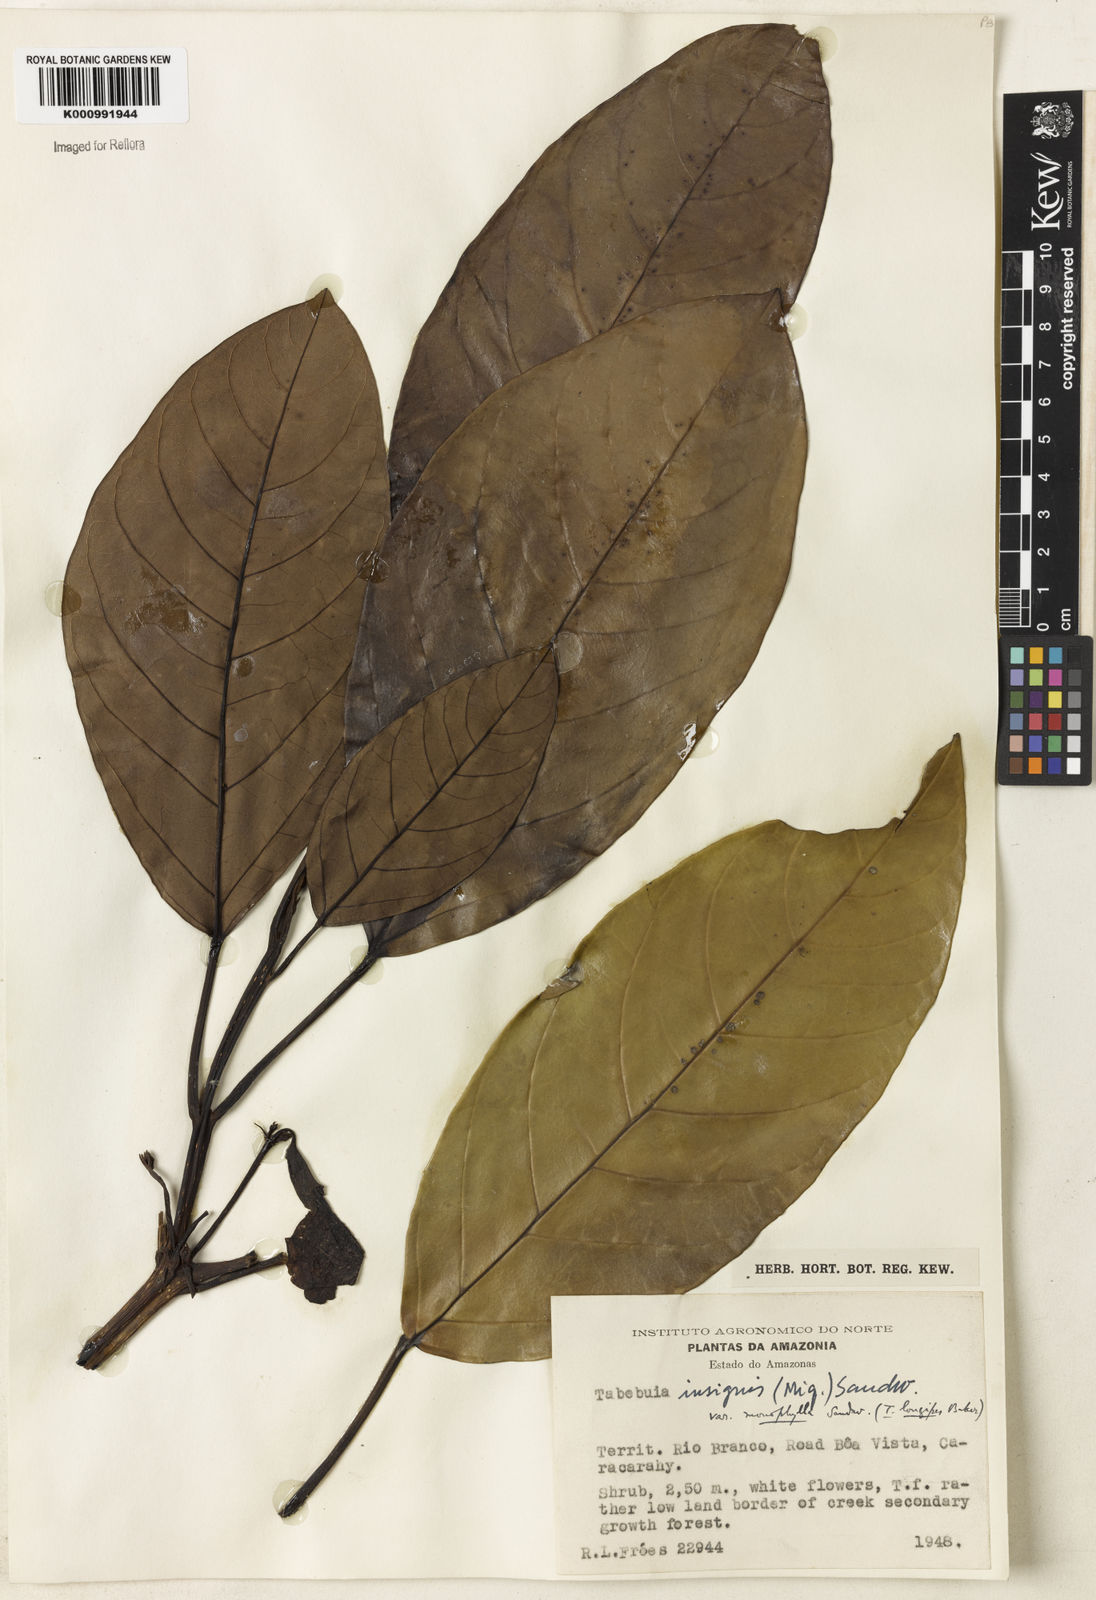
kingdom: Plantae
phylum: Tracheophyta
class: Magnoliopsida
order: Lamiales
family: Bignoniaceae
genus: Tabebuia
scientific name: Tabebuia insignis
